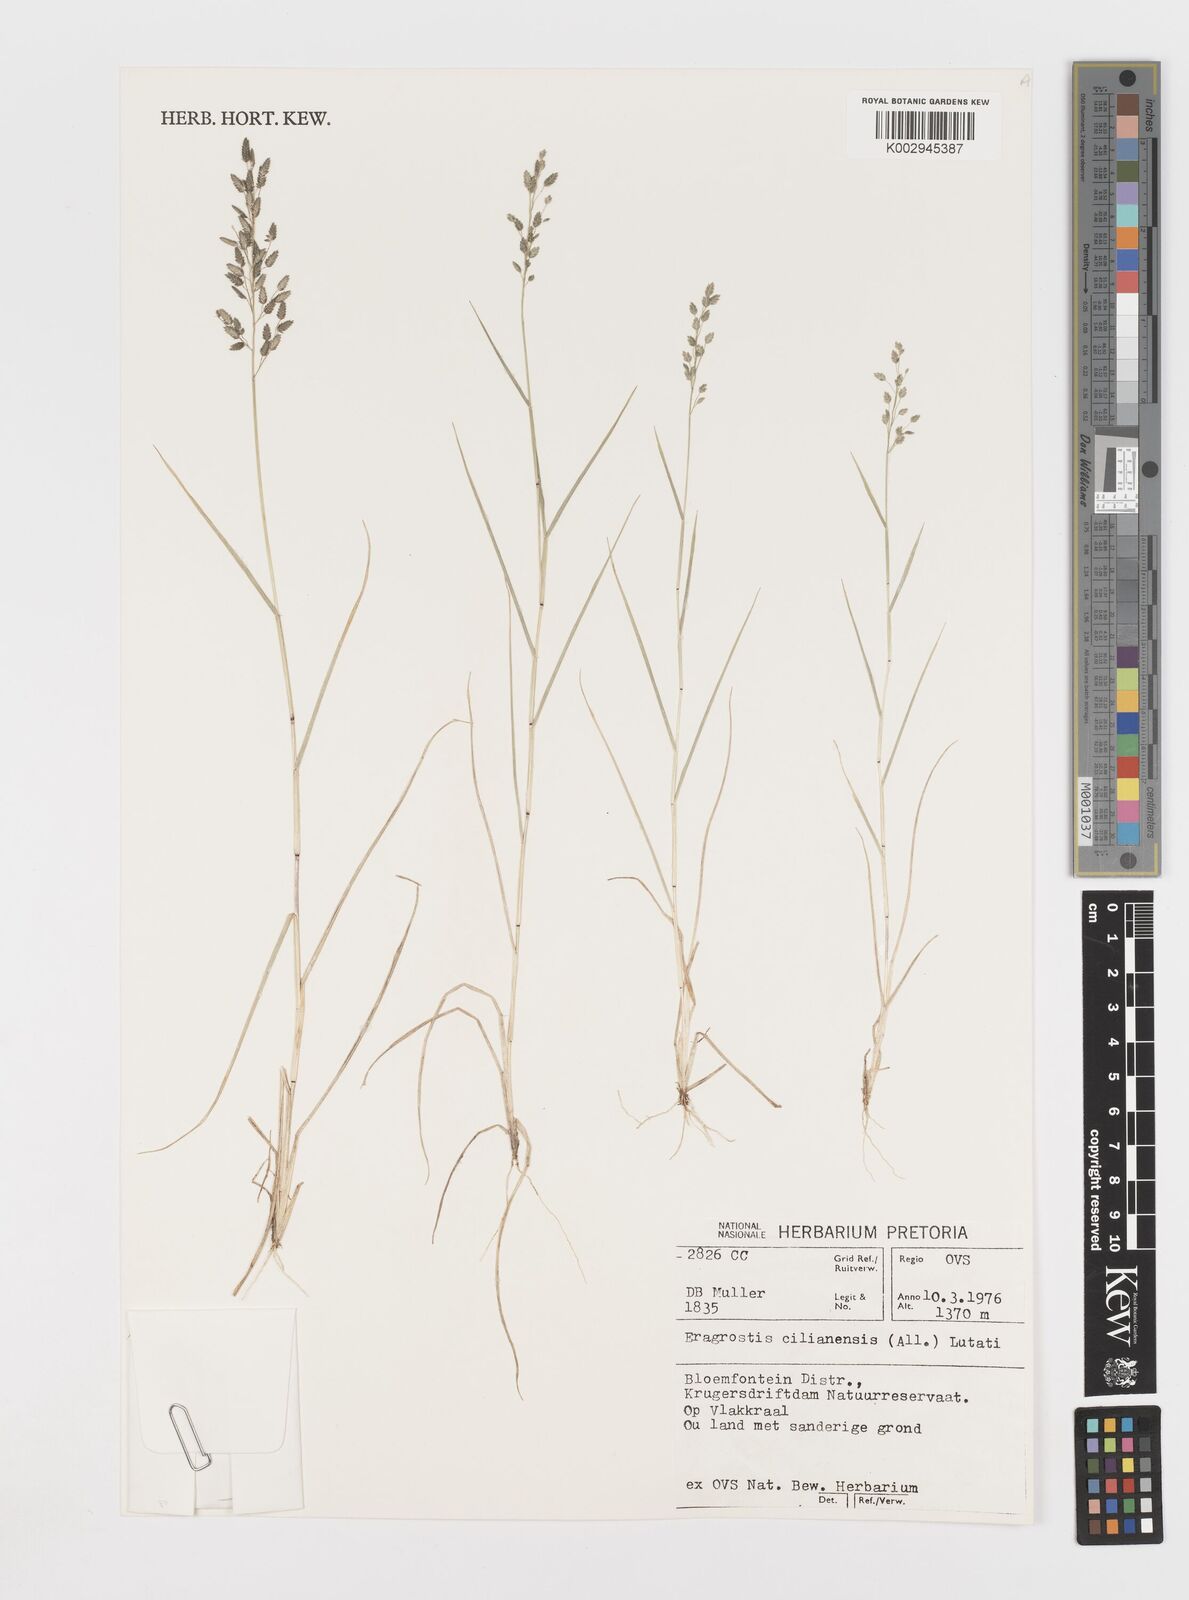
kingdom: Plantae
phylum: Tracheophyta
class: Liliopsida
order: Poales
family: Poaceae
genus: Eragrostis
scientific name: Eragrostis cilianensis
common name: Stinkgrass
